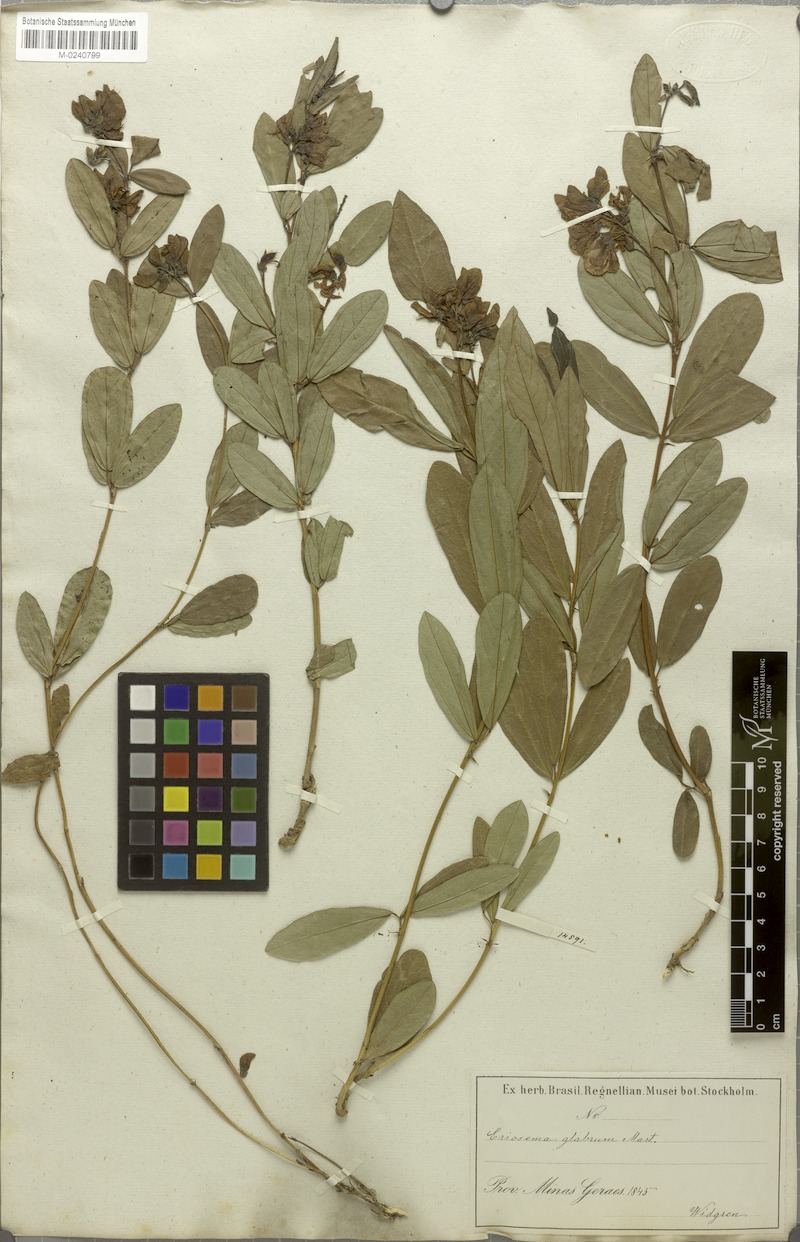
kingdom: Plantae
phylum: Tracheophyta
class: Magnoliopsida
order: Fabales
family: Fabaceae
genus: Eriosema
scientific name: Eriosema glabrum
